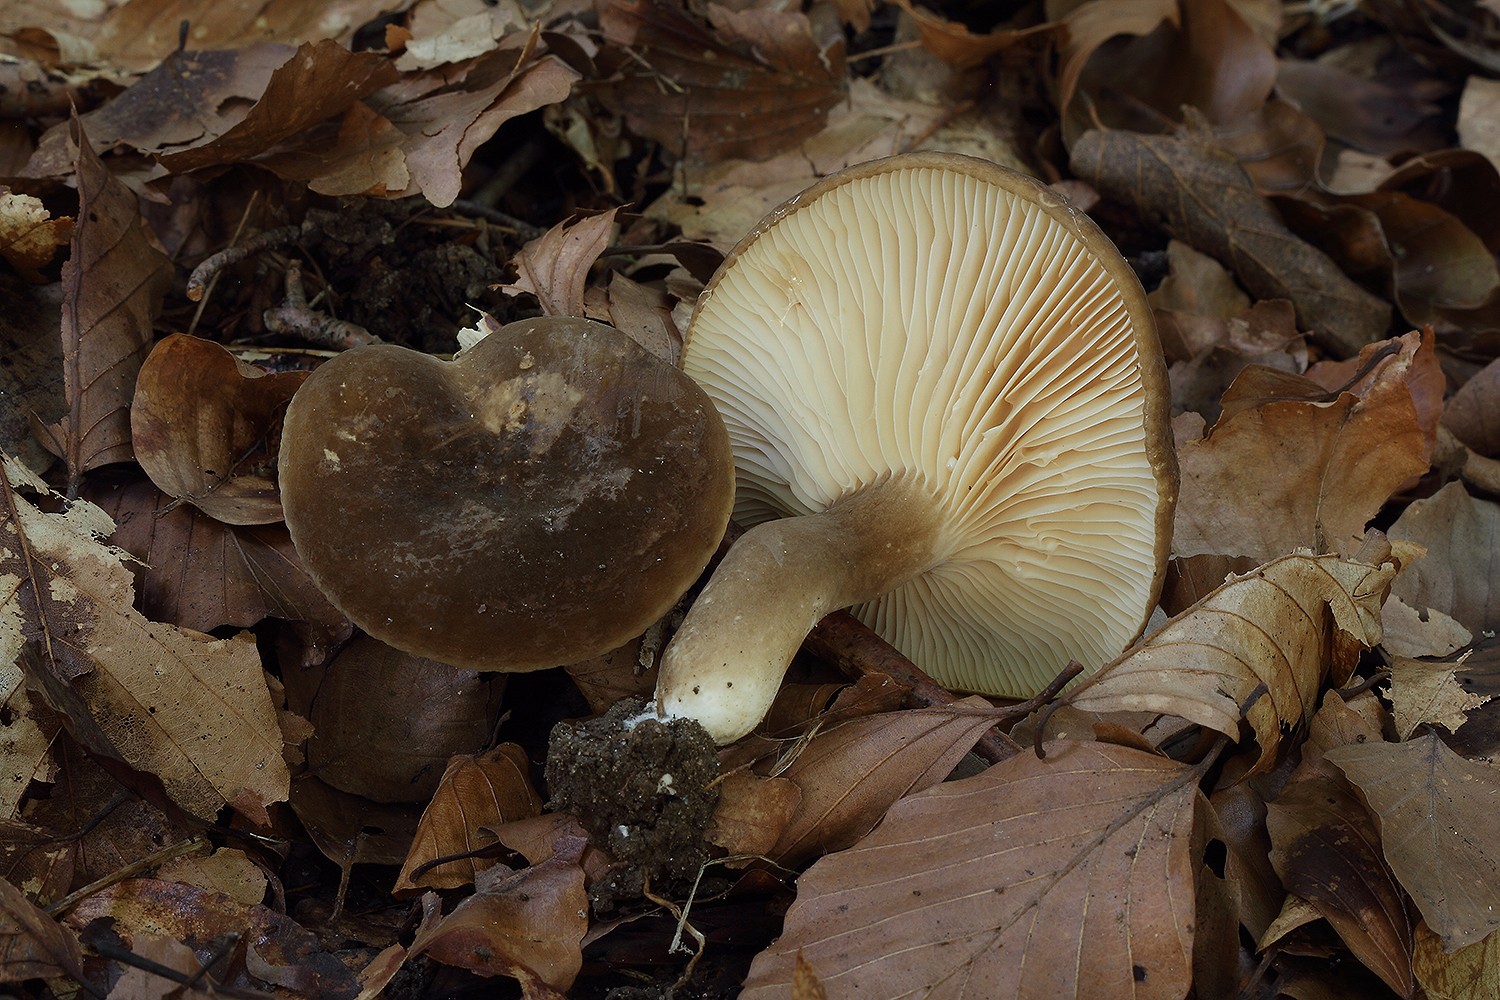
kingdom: Fungi
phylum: Basidiomycota
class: Agaricomycetes
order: Russulales
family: Russulaceae
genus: Lactarius
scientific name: Lactarius romagnesii
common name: fjernbladet mælkehat
